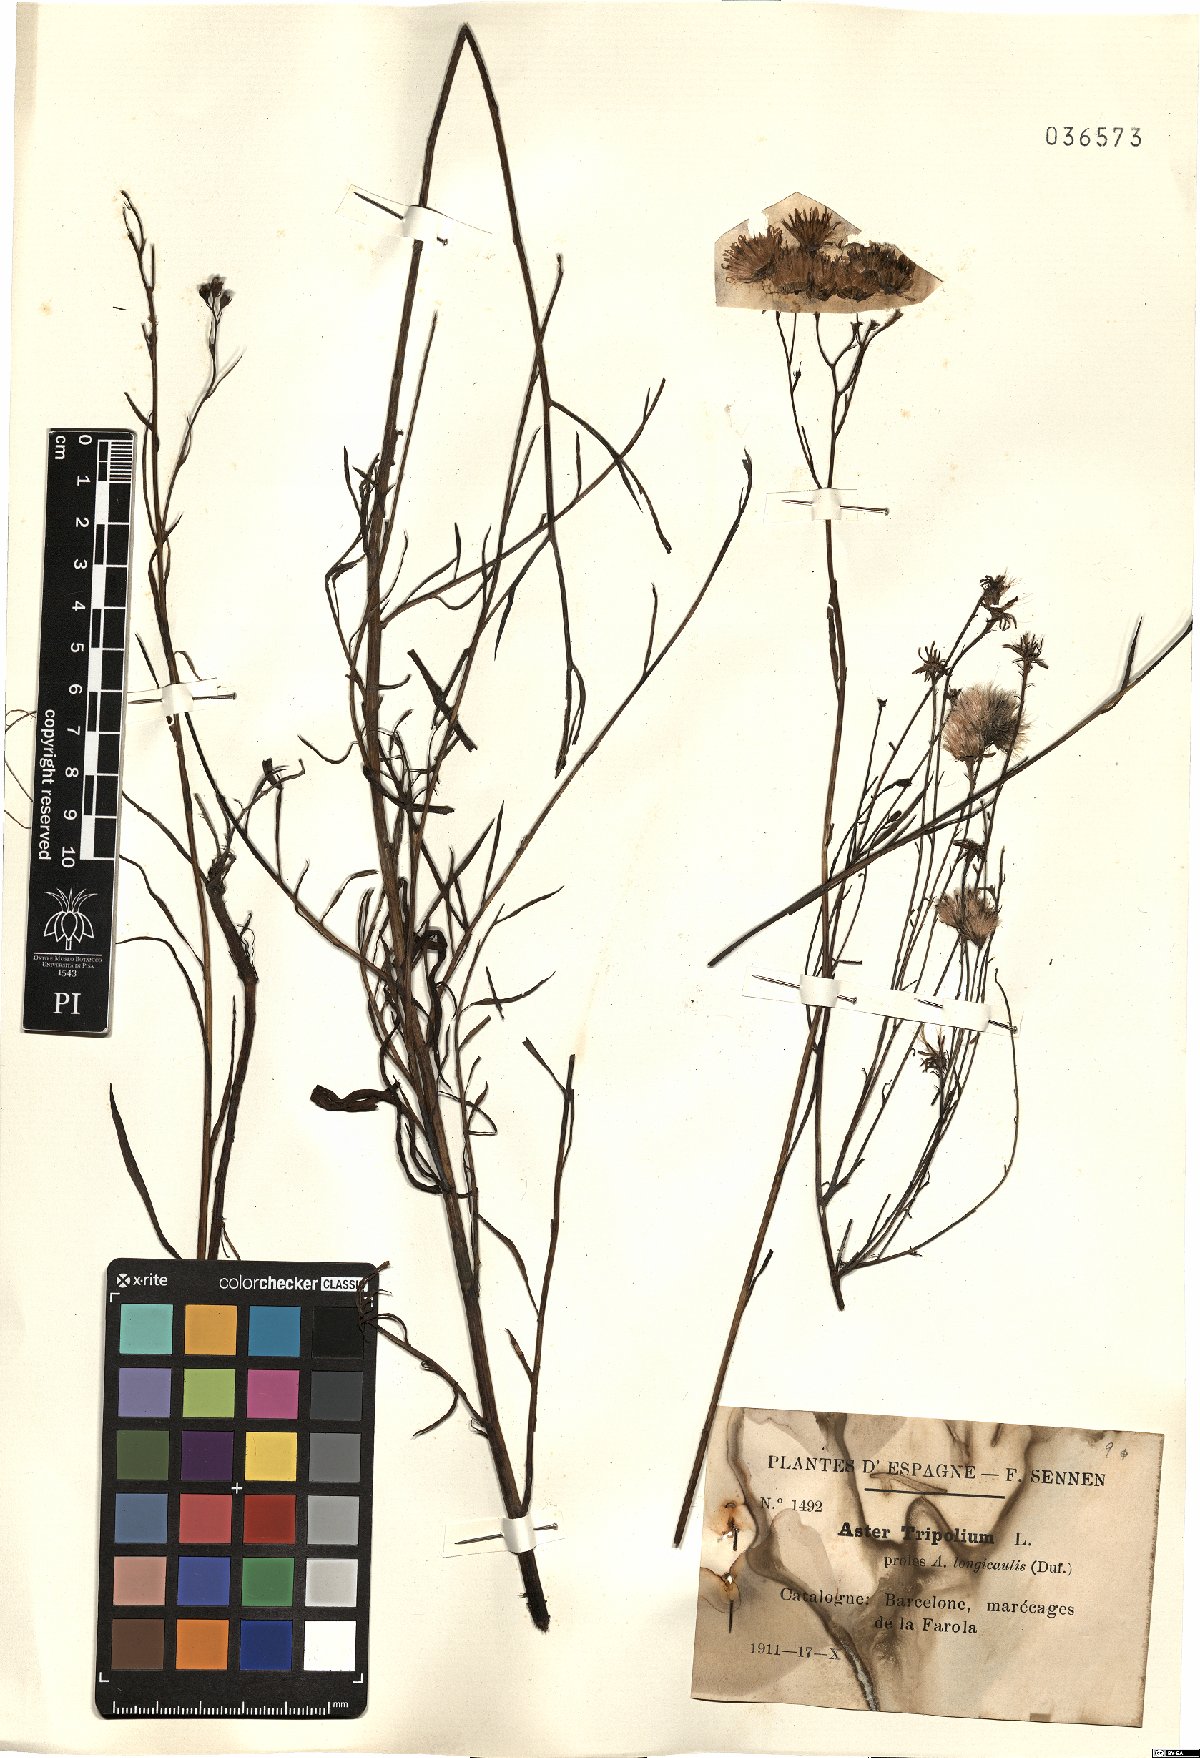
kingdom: Plantae
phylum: Tracheophyta
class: Magnoliopsida
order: Asterales
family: Asteraceae
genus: Tripolium
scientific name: Tripolium pannonicum
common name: Sea aster
